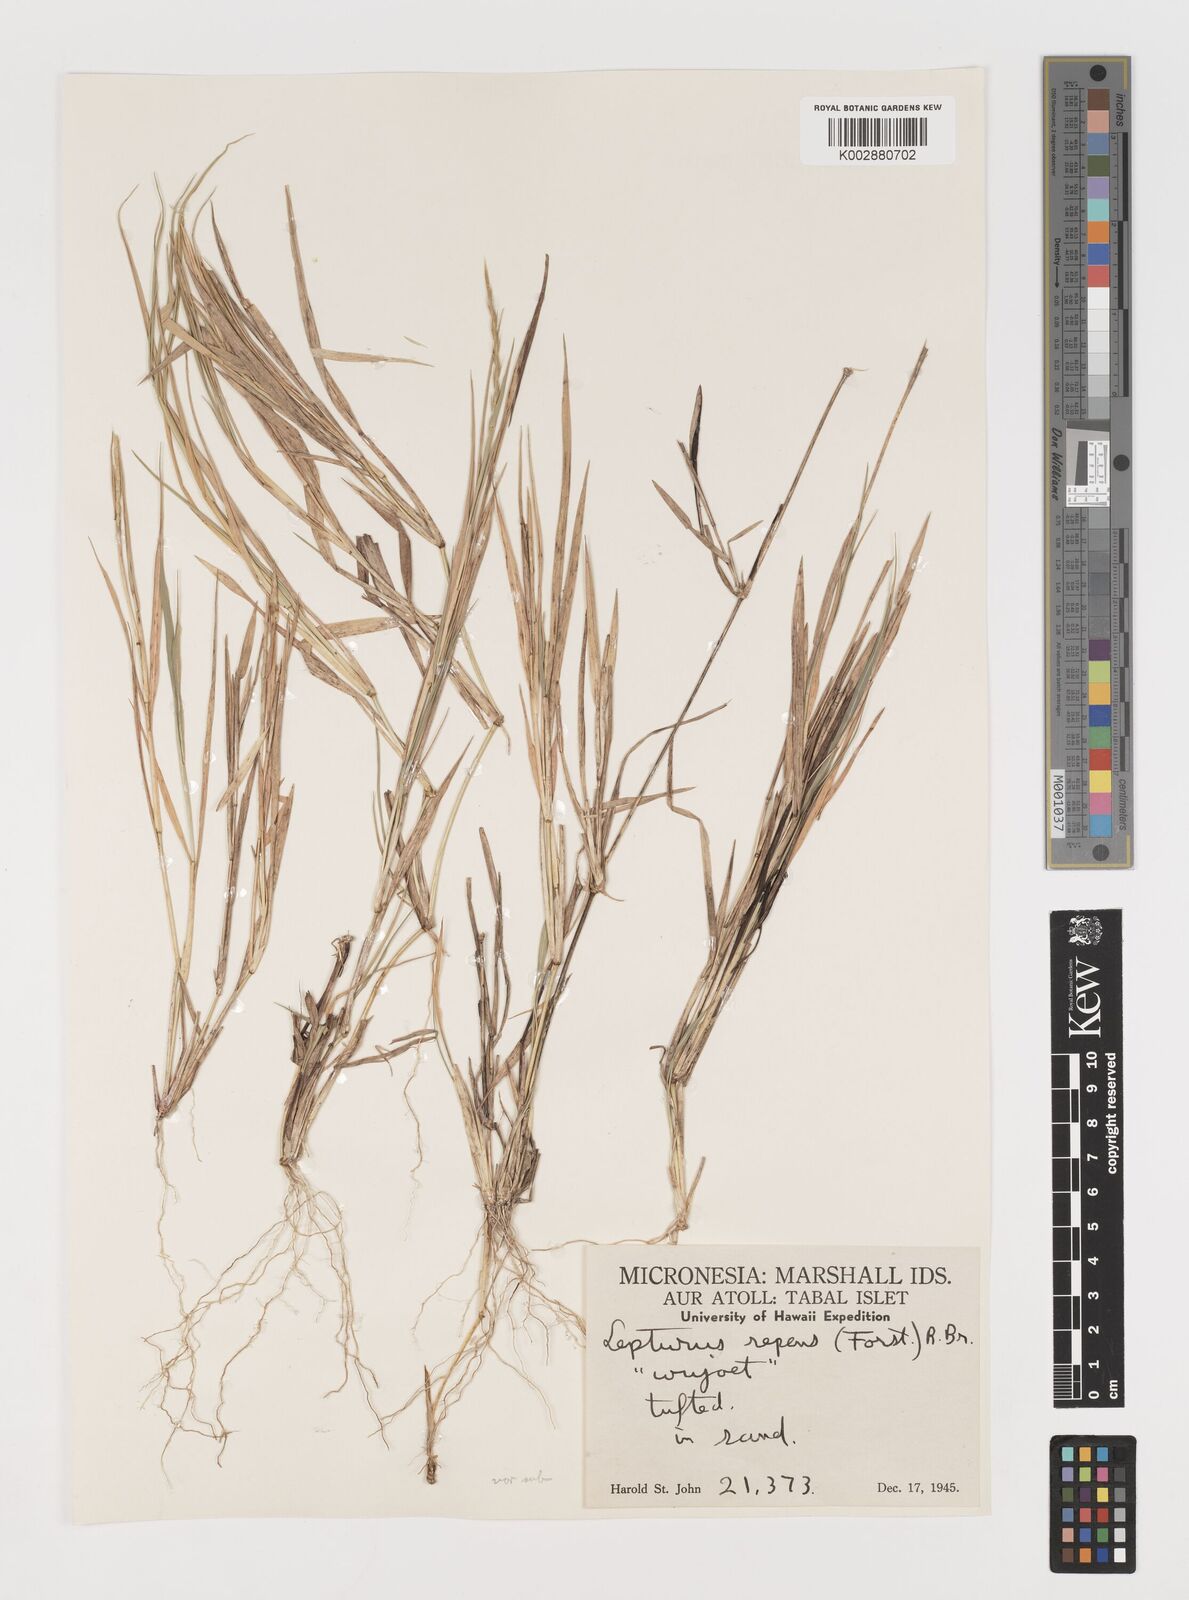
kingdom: Plantae
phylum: Tracheophyta
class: Liliopsida
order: Poales
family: Poaceae
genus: Lepturus
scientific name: Lepturus repens
